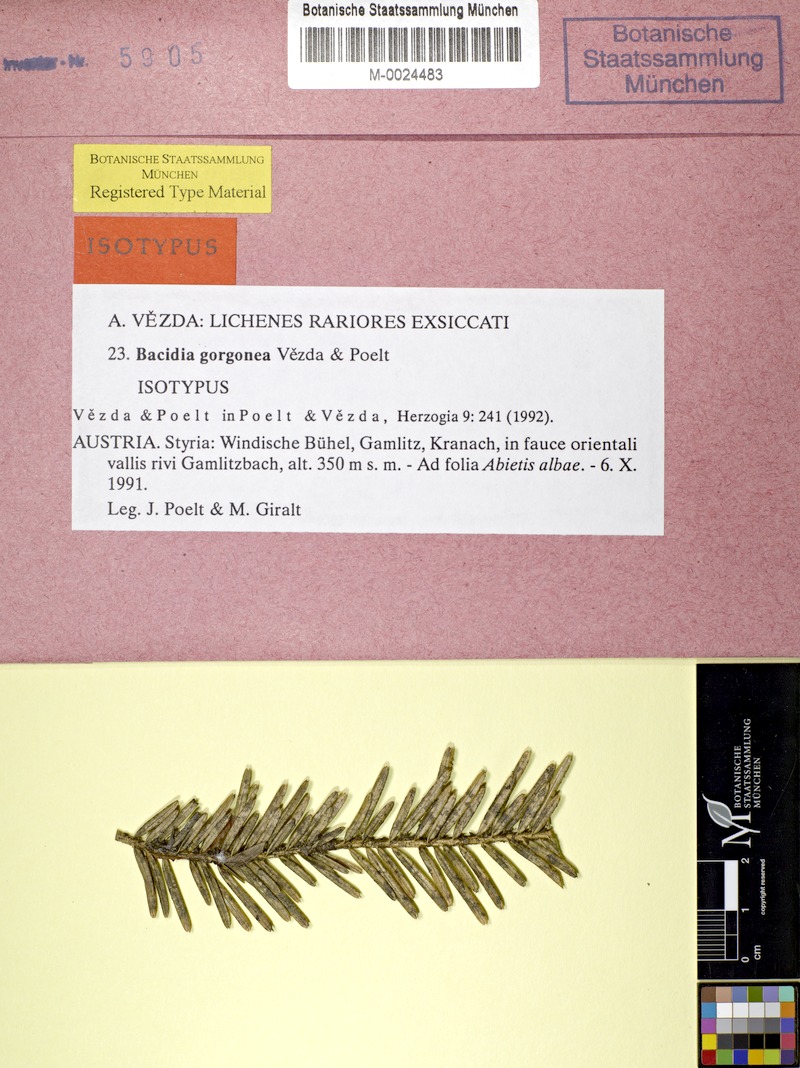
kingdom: Fungi
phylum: Ascomycota
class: Lecanoromycetes
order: Lecanorales
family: Ramalinaceae
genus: Bacidia
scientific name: Bacidia gorgonea
